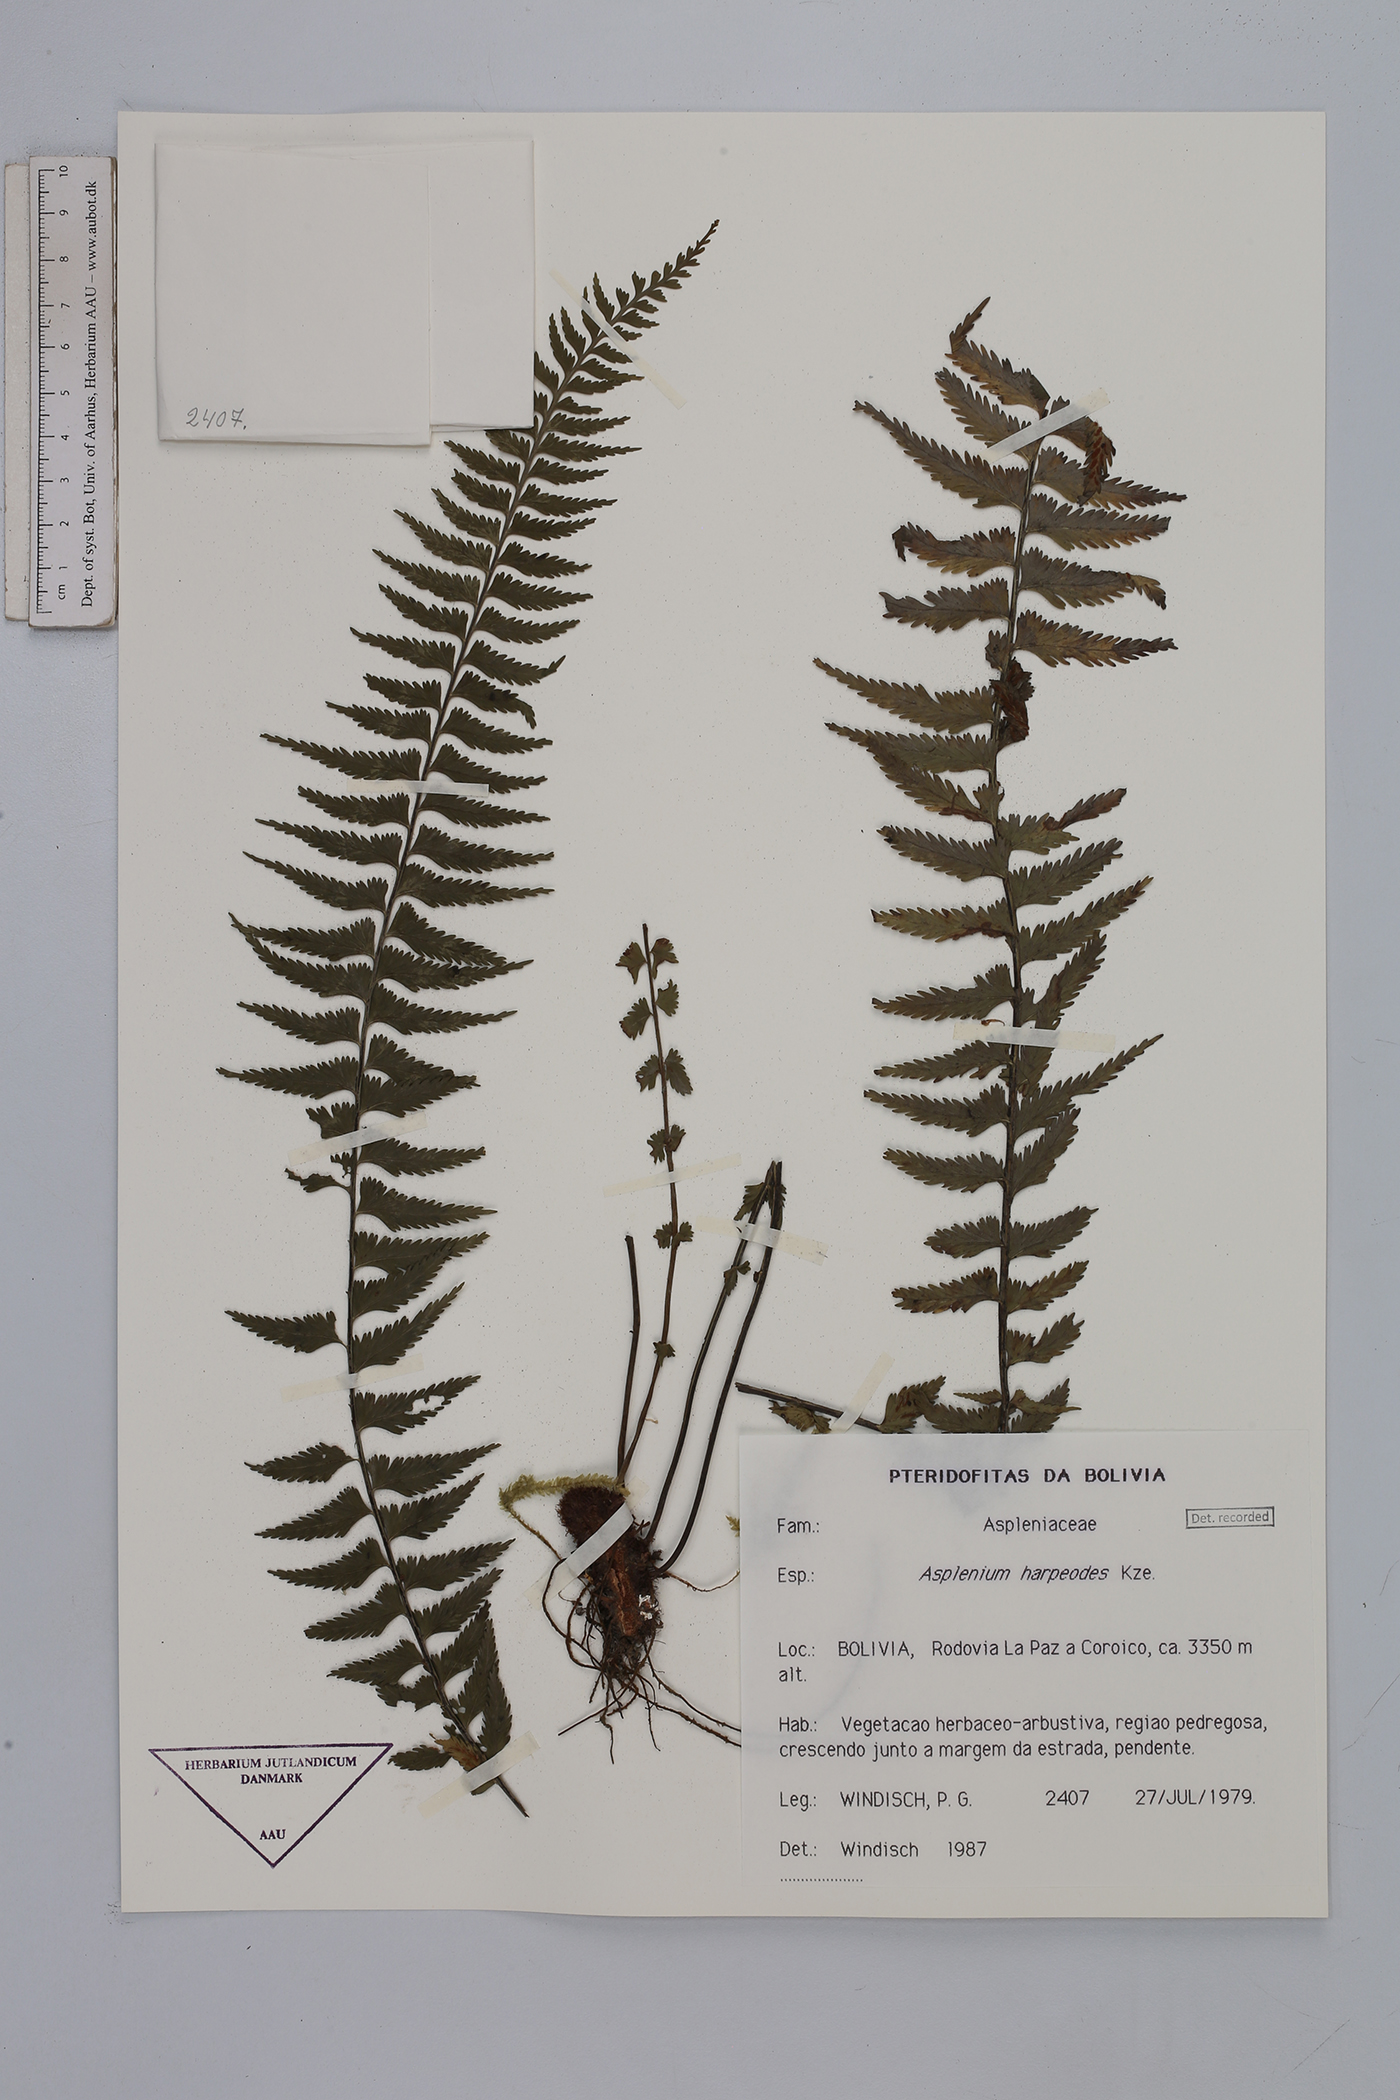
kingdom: Plantae
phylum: Tracheophyta
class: Polypodiopsida
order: Polypodiales
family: Aspleniaceae
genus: Asplenium
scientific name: Asplenium harpeodes
